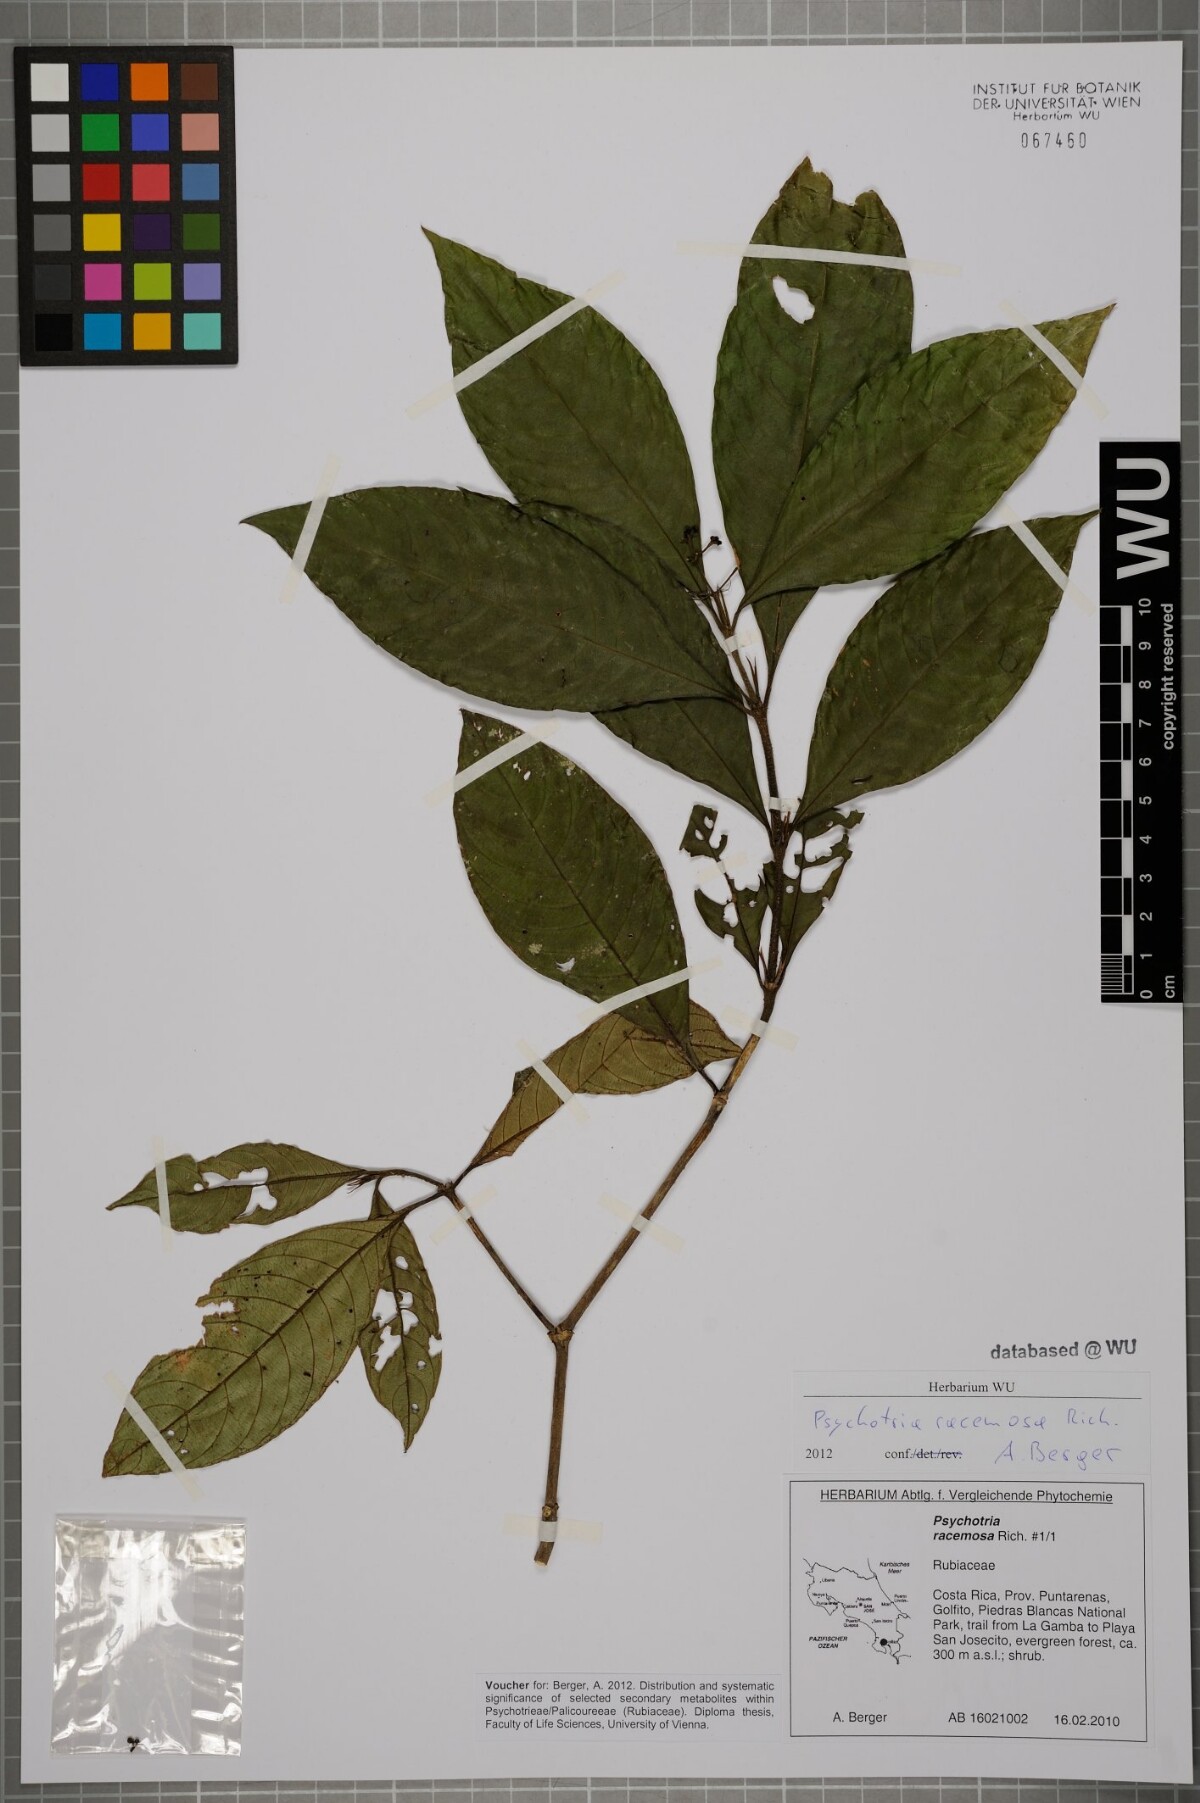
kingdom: Plantae
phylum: Tracheophyta
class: Magnoliopsida
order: Gentianales
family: Rubiaceae
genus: Palicourea
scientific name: Palicourea racemosa
